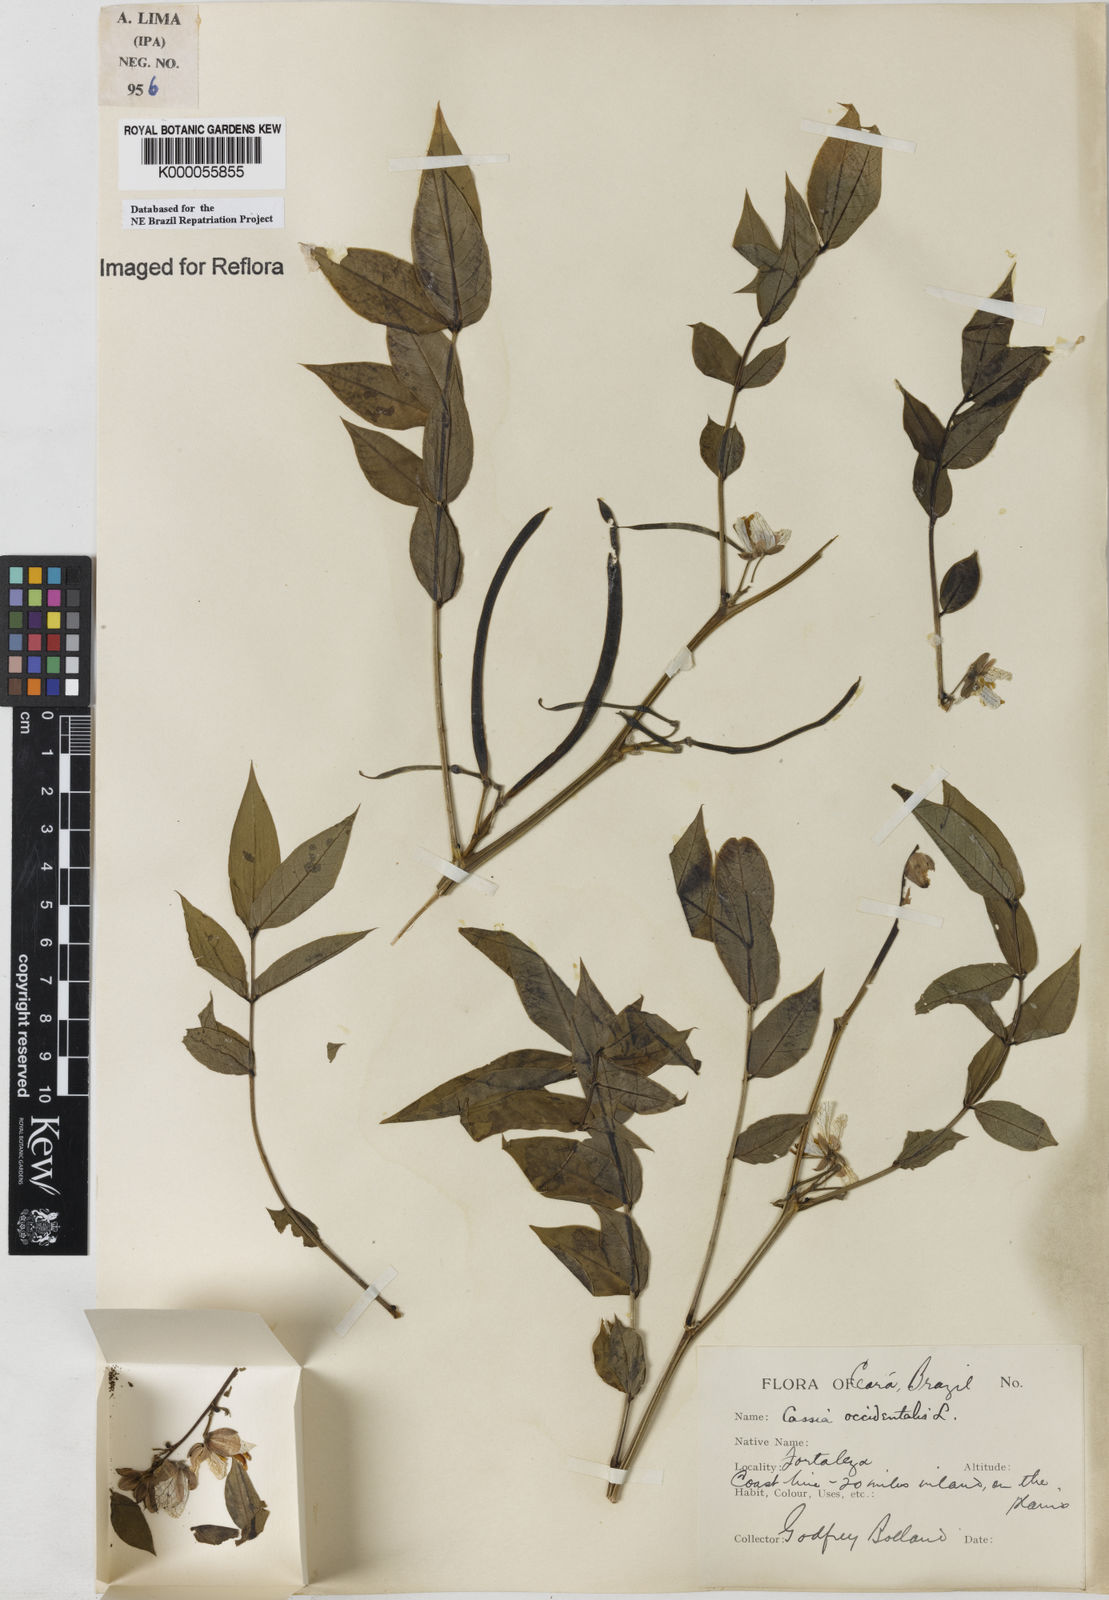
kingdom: Plantae
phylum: Tracheophyta
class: Magnoliopsida
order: Fabales
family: Fabaceae
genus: Senna
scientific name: Senna occidentalis
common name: Septicweed
